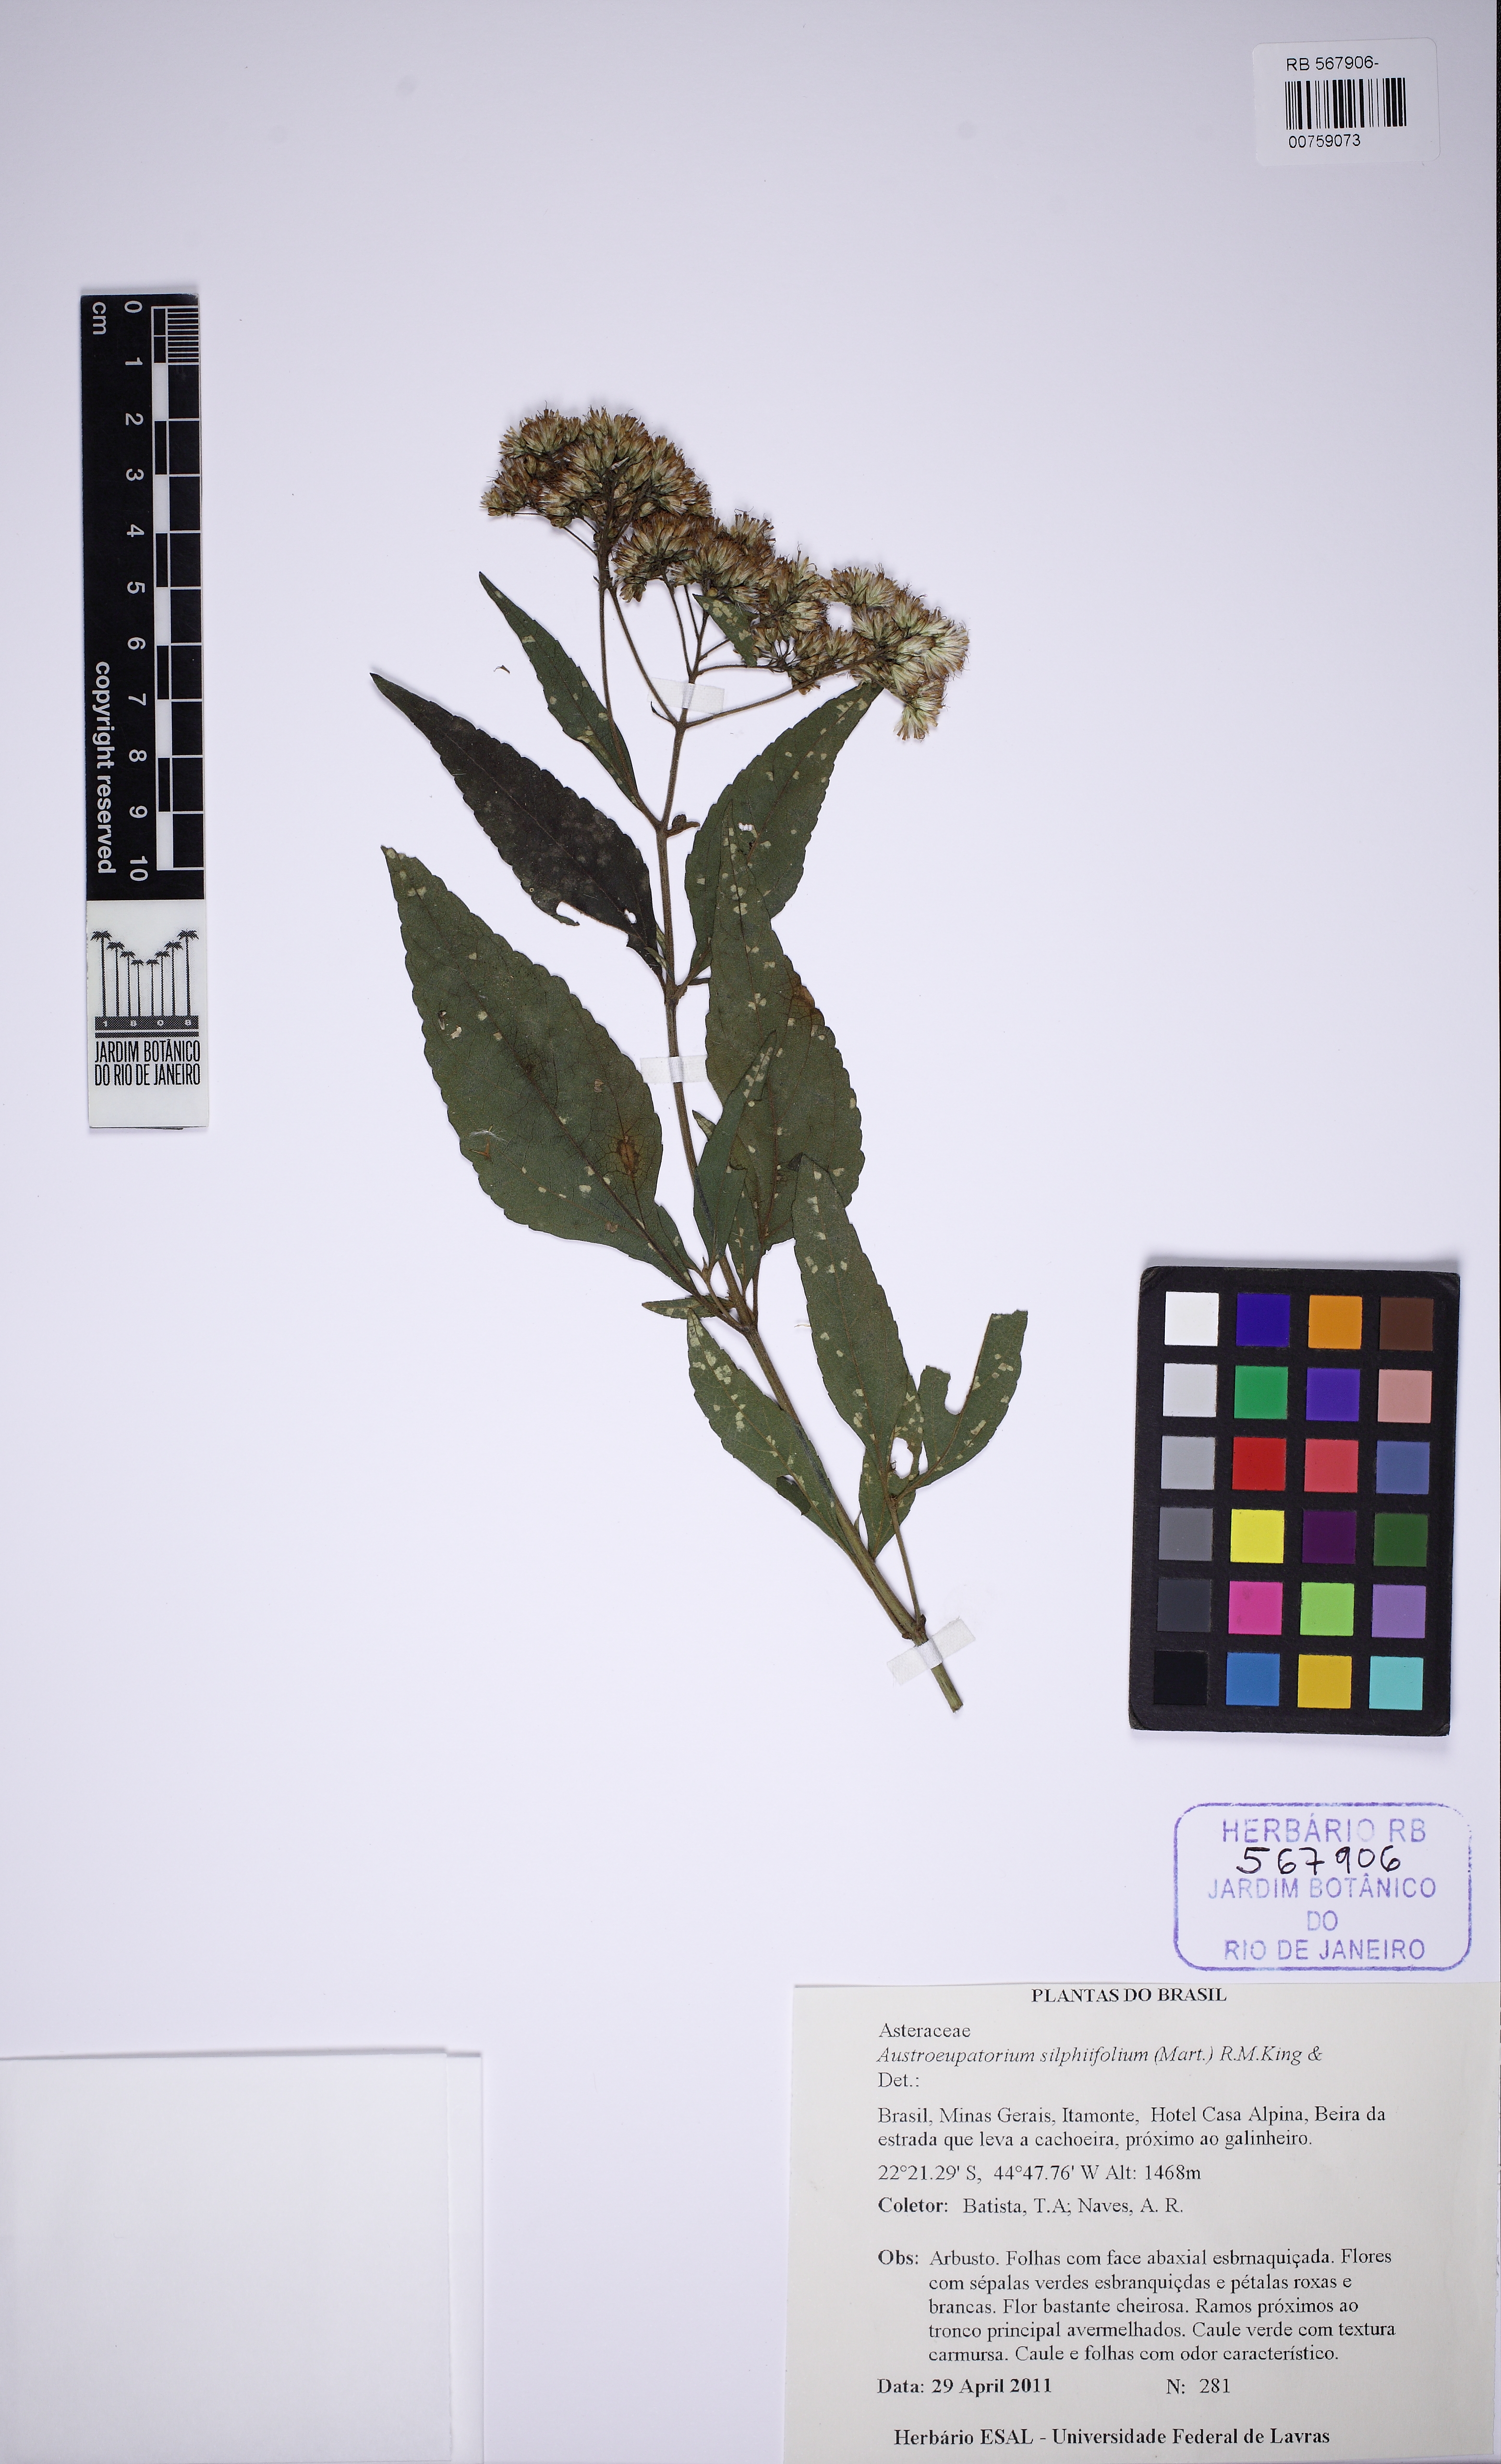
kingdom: Plantae
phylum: Tracheophyta
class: Magnoliopsida
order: Asterales
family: Asteraceae
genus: Austroeupatorium
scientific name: Austroeupatorium silphiifolium
